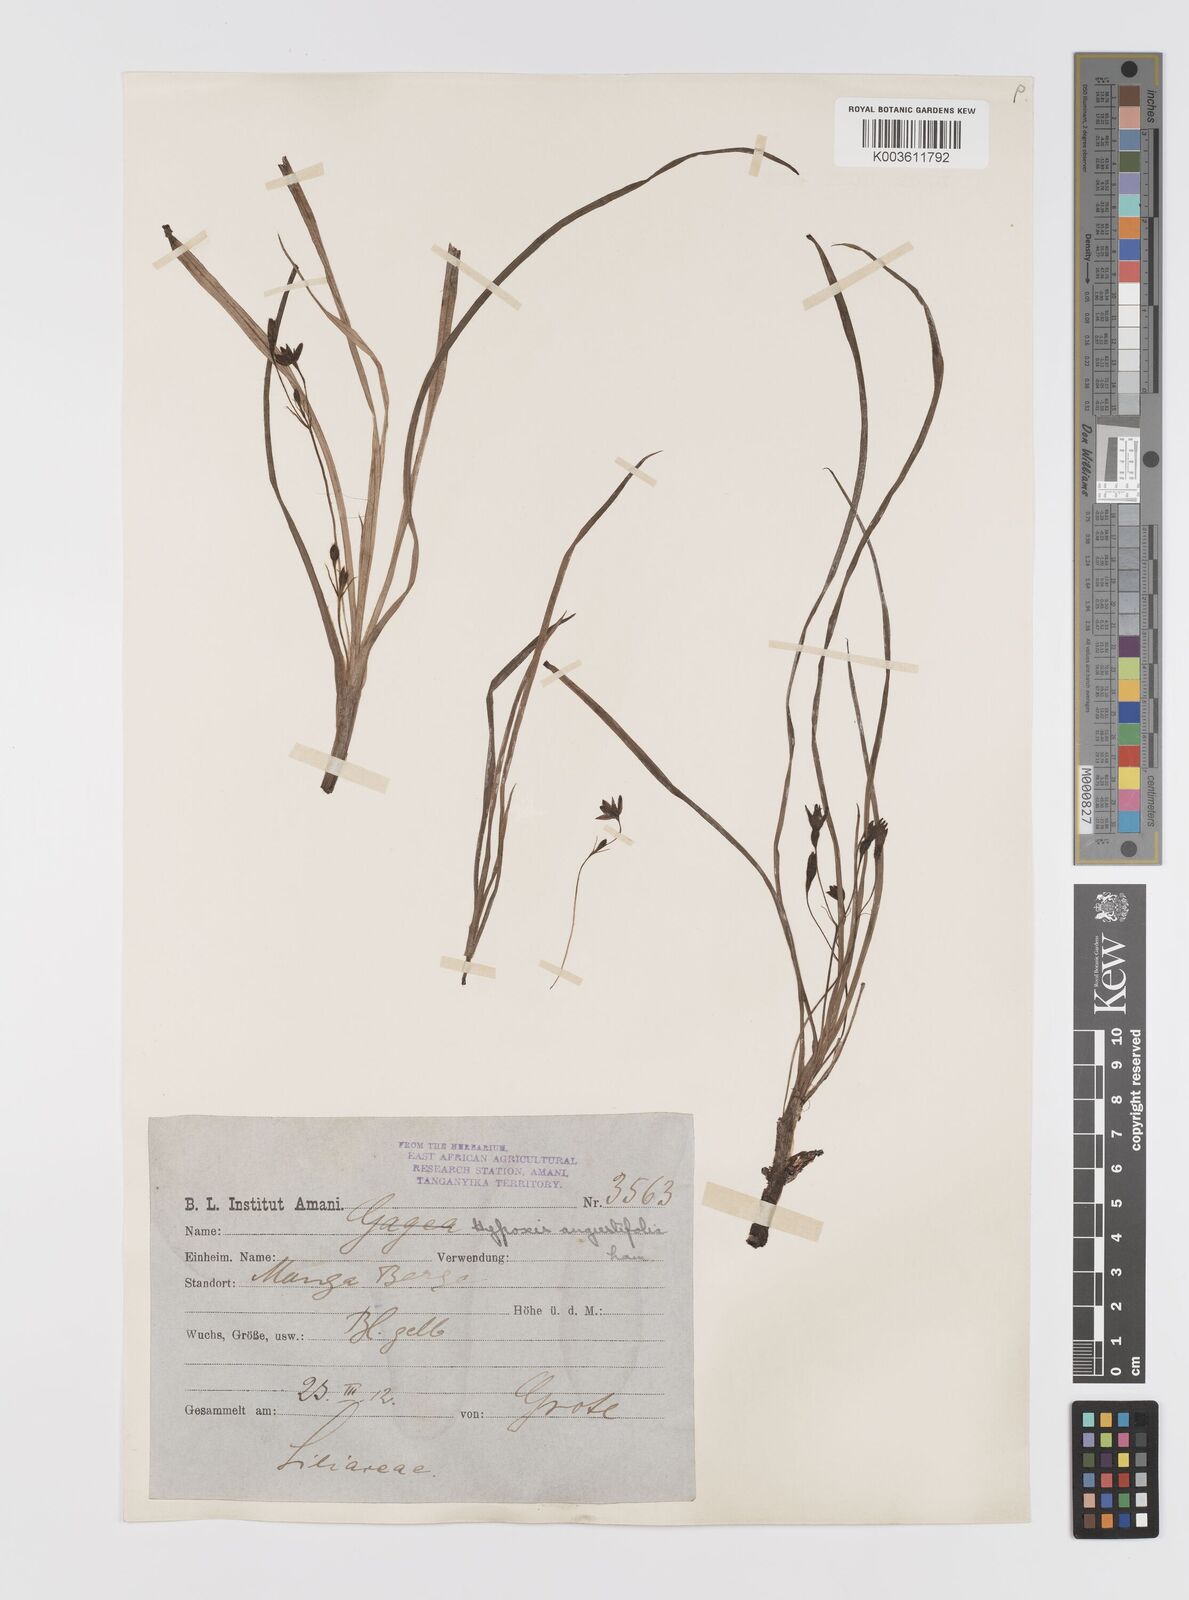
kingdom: Plantae
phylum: Tracheophyta
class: Liliopsida
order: Asparagales
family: Hypoxidaceae
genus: Hypoxis
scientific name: Hypoxis angustifolia
